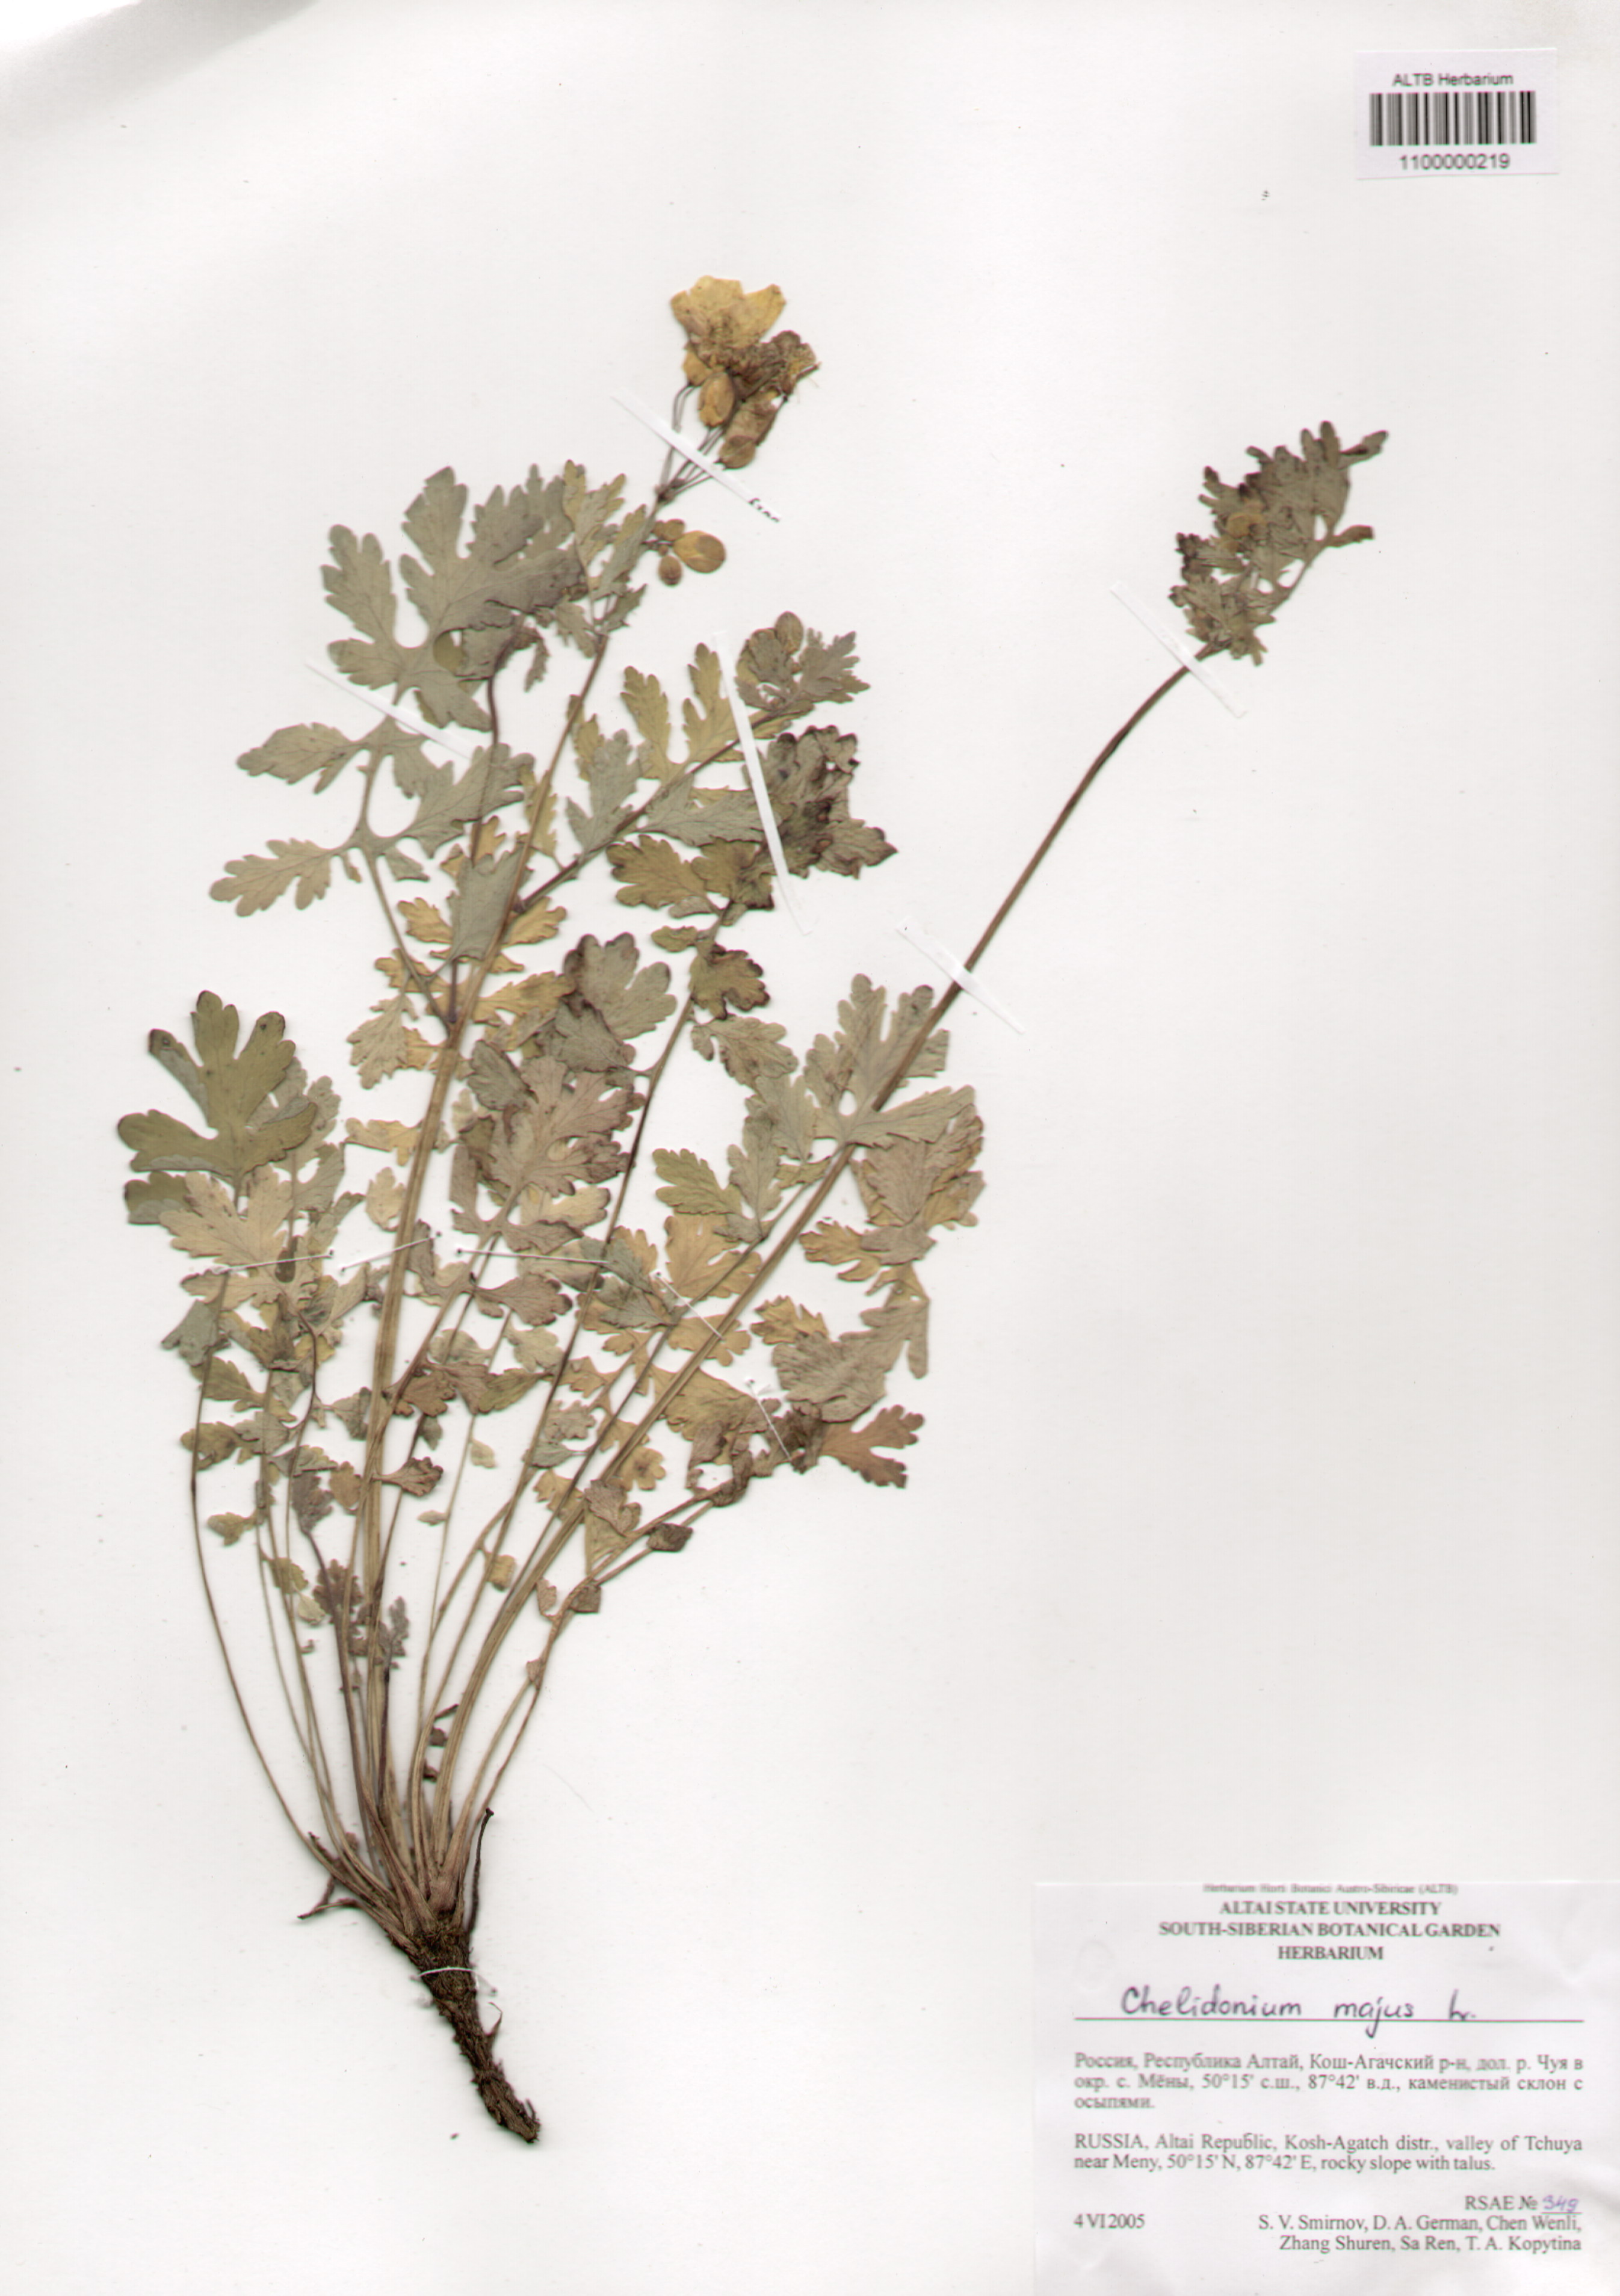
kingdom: Plantae
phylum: Tracheophyta
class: Magnoliopsida
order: Ranunculales
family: Papaveraceae
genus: Chelidonium
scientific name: Chelidonium majus
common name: Greater celandine
